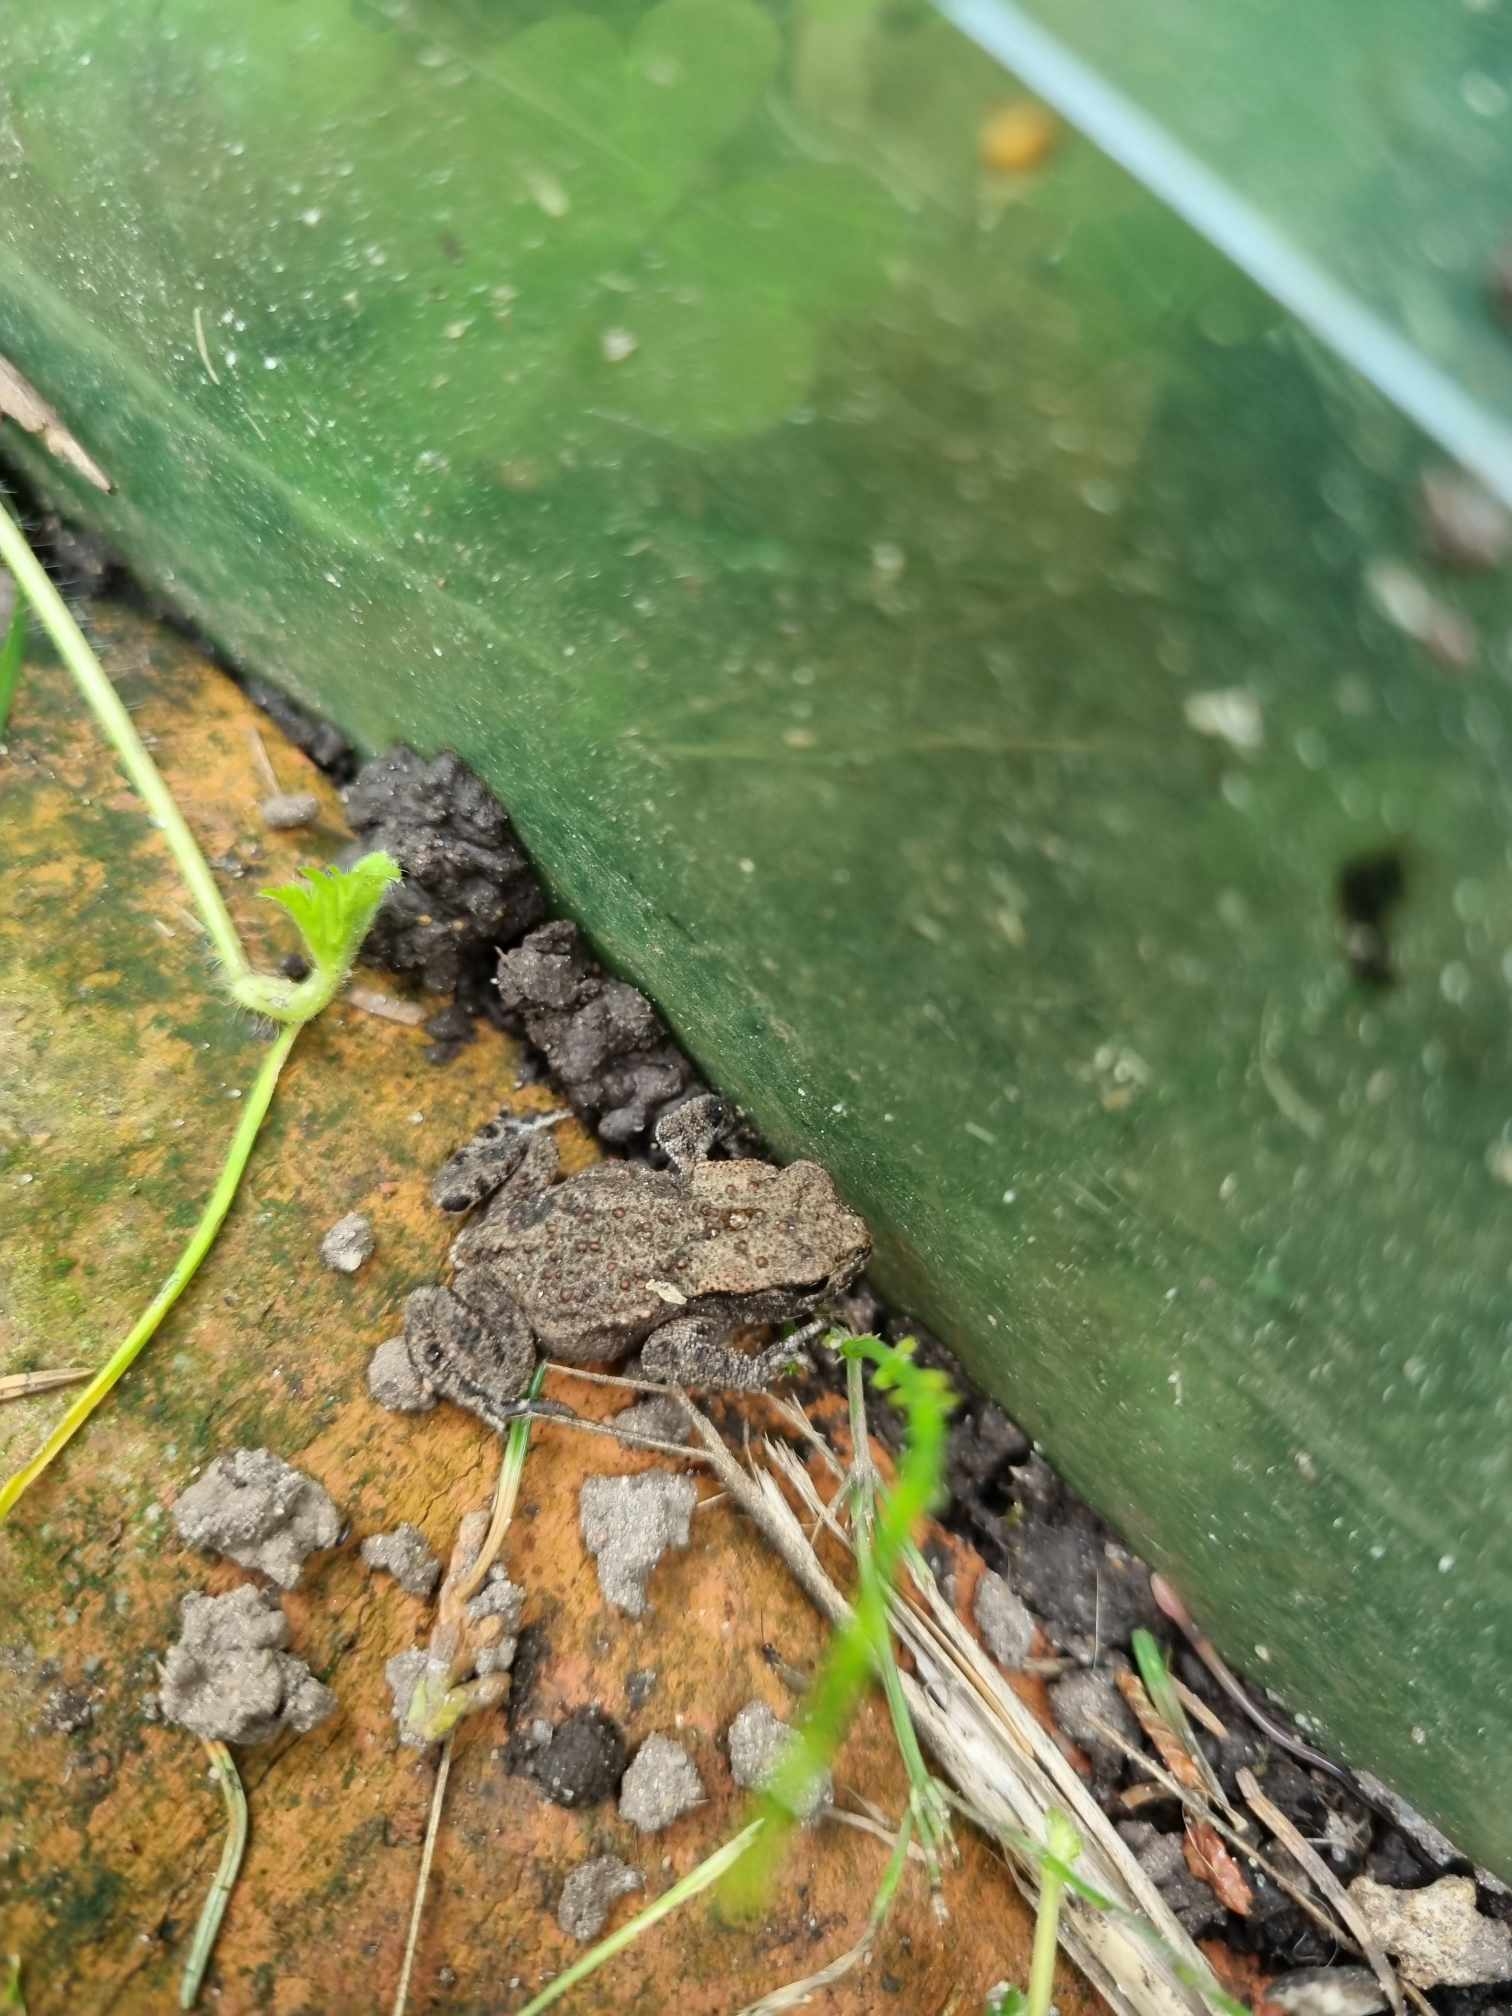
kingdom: Animalia
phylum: Chordata
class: Amphibia
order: Anura
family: Bufonidae
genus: Bufo
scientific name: Bufo bufo
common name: Skrubtudse
